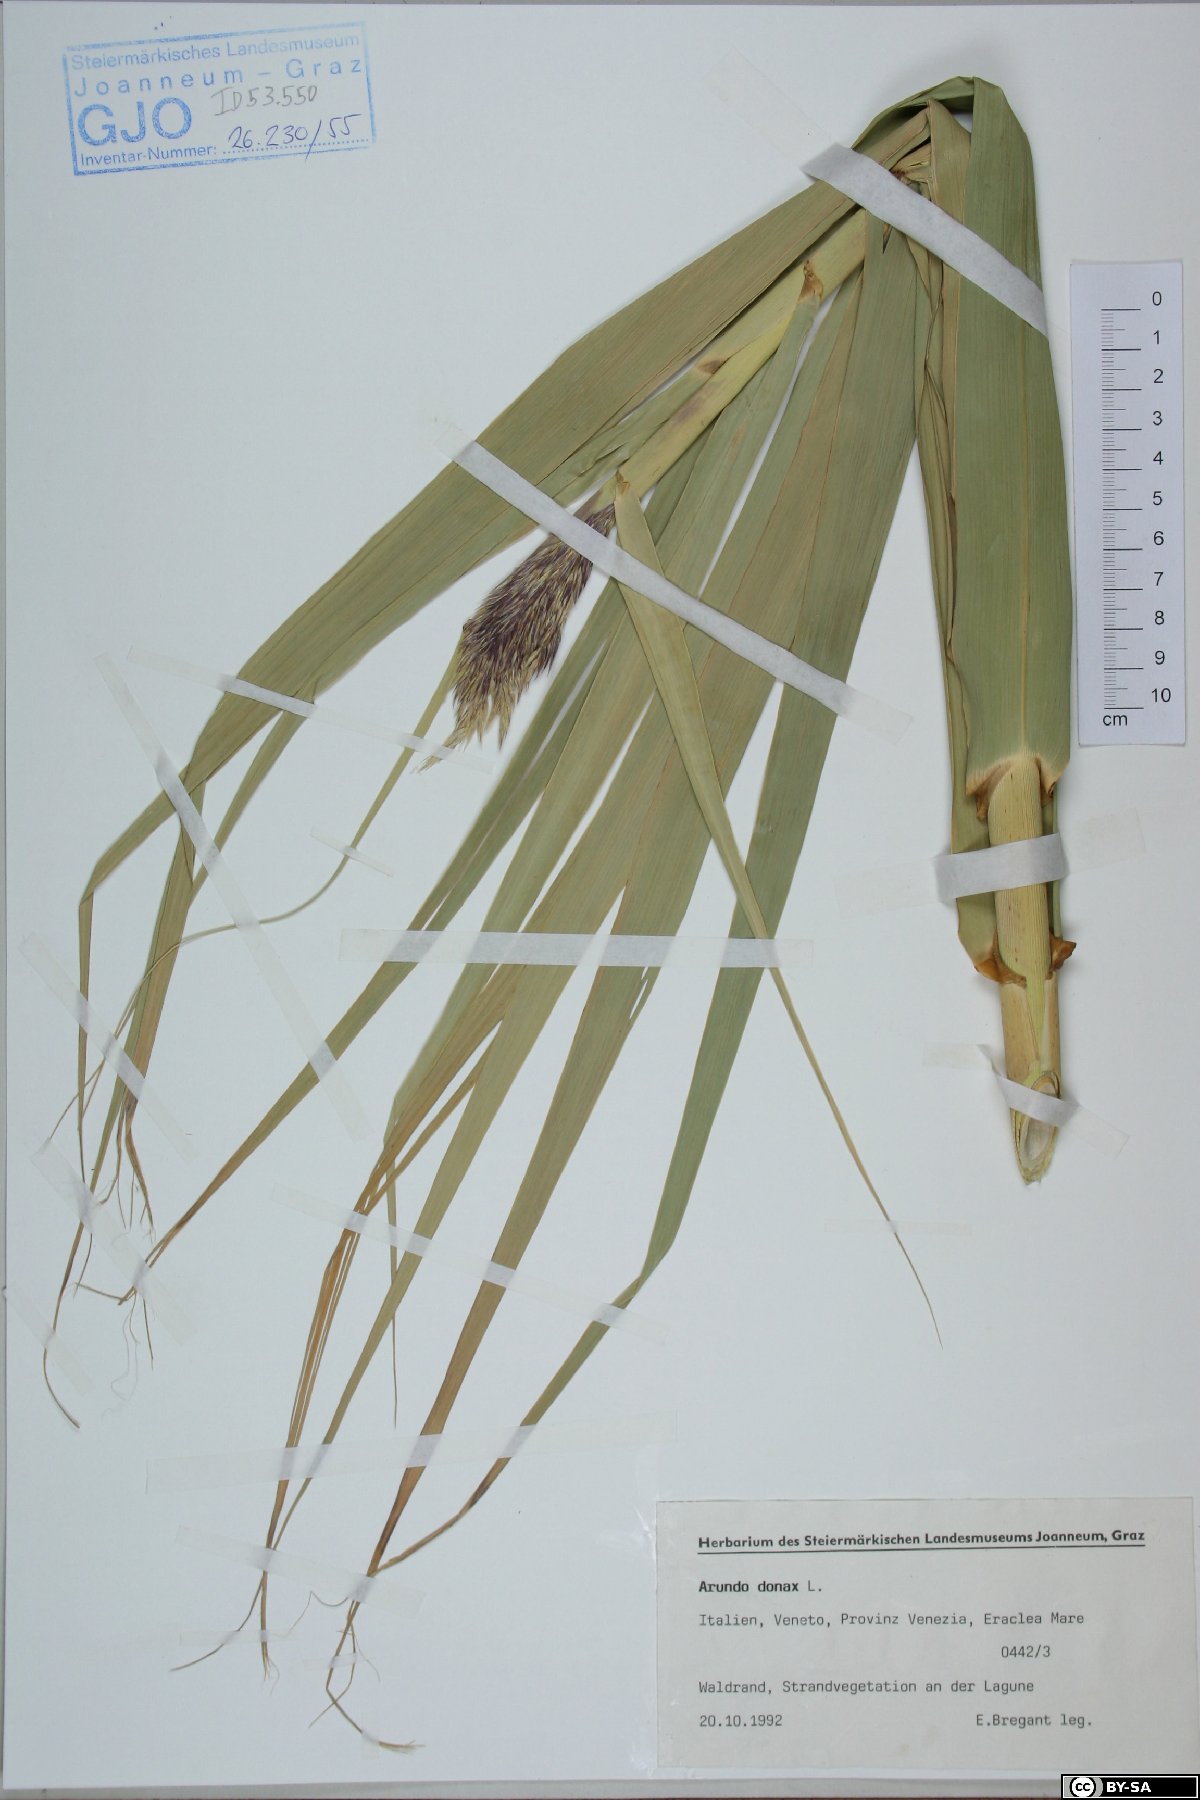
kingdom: Plantae
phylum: Tracheophyta
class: Liliopsida
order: Poales
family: Poaceae
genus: Arundo
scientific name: Arundo donax
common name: Giant reed
